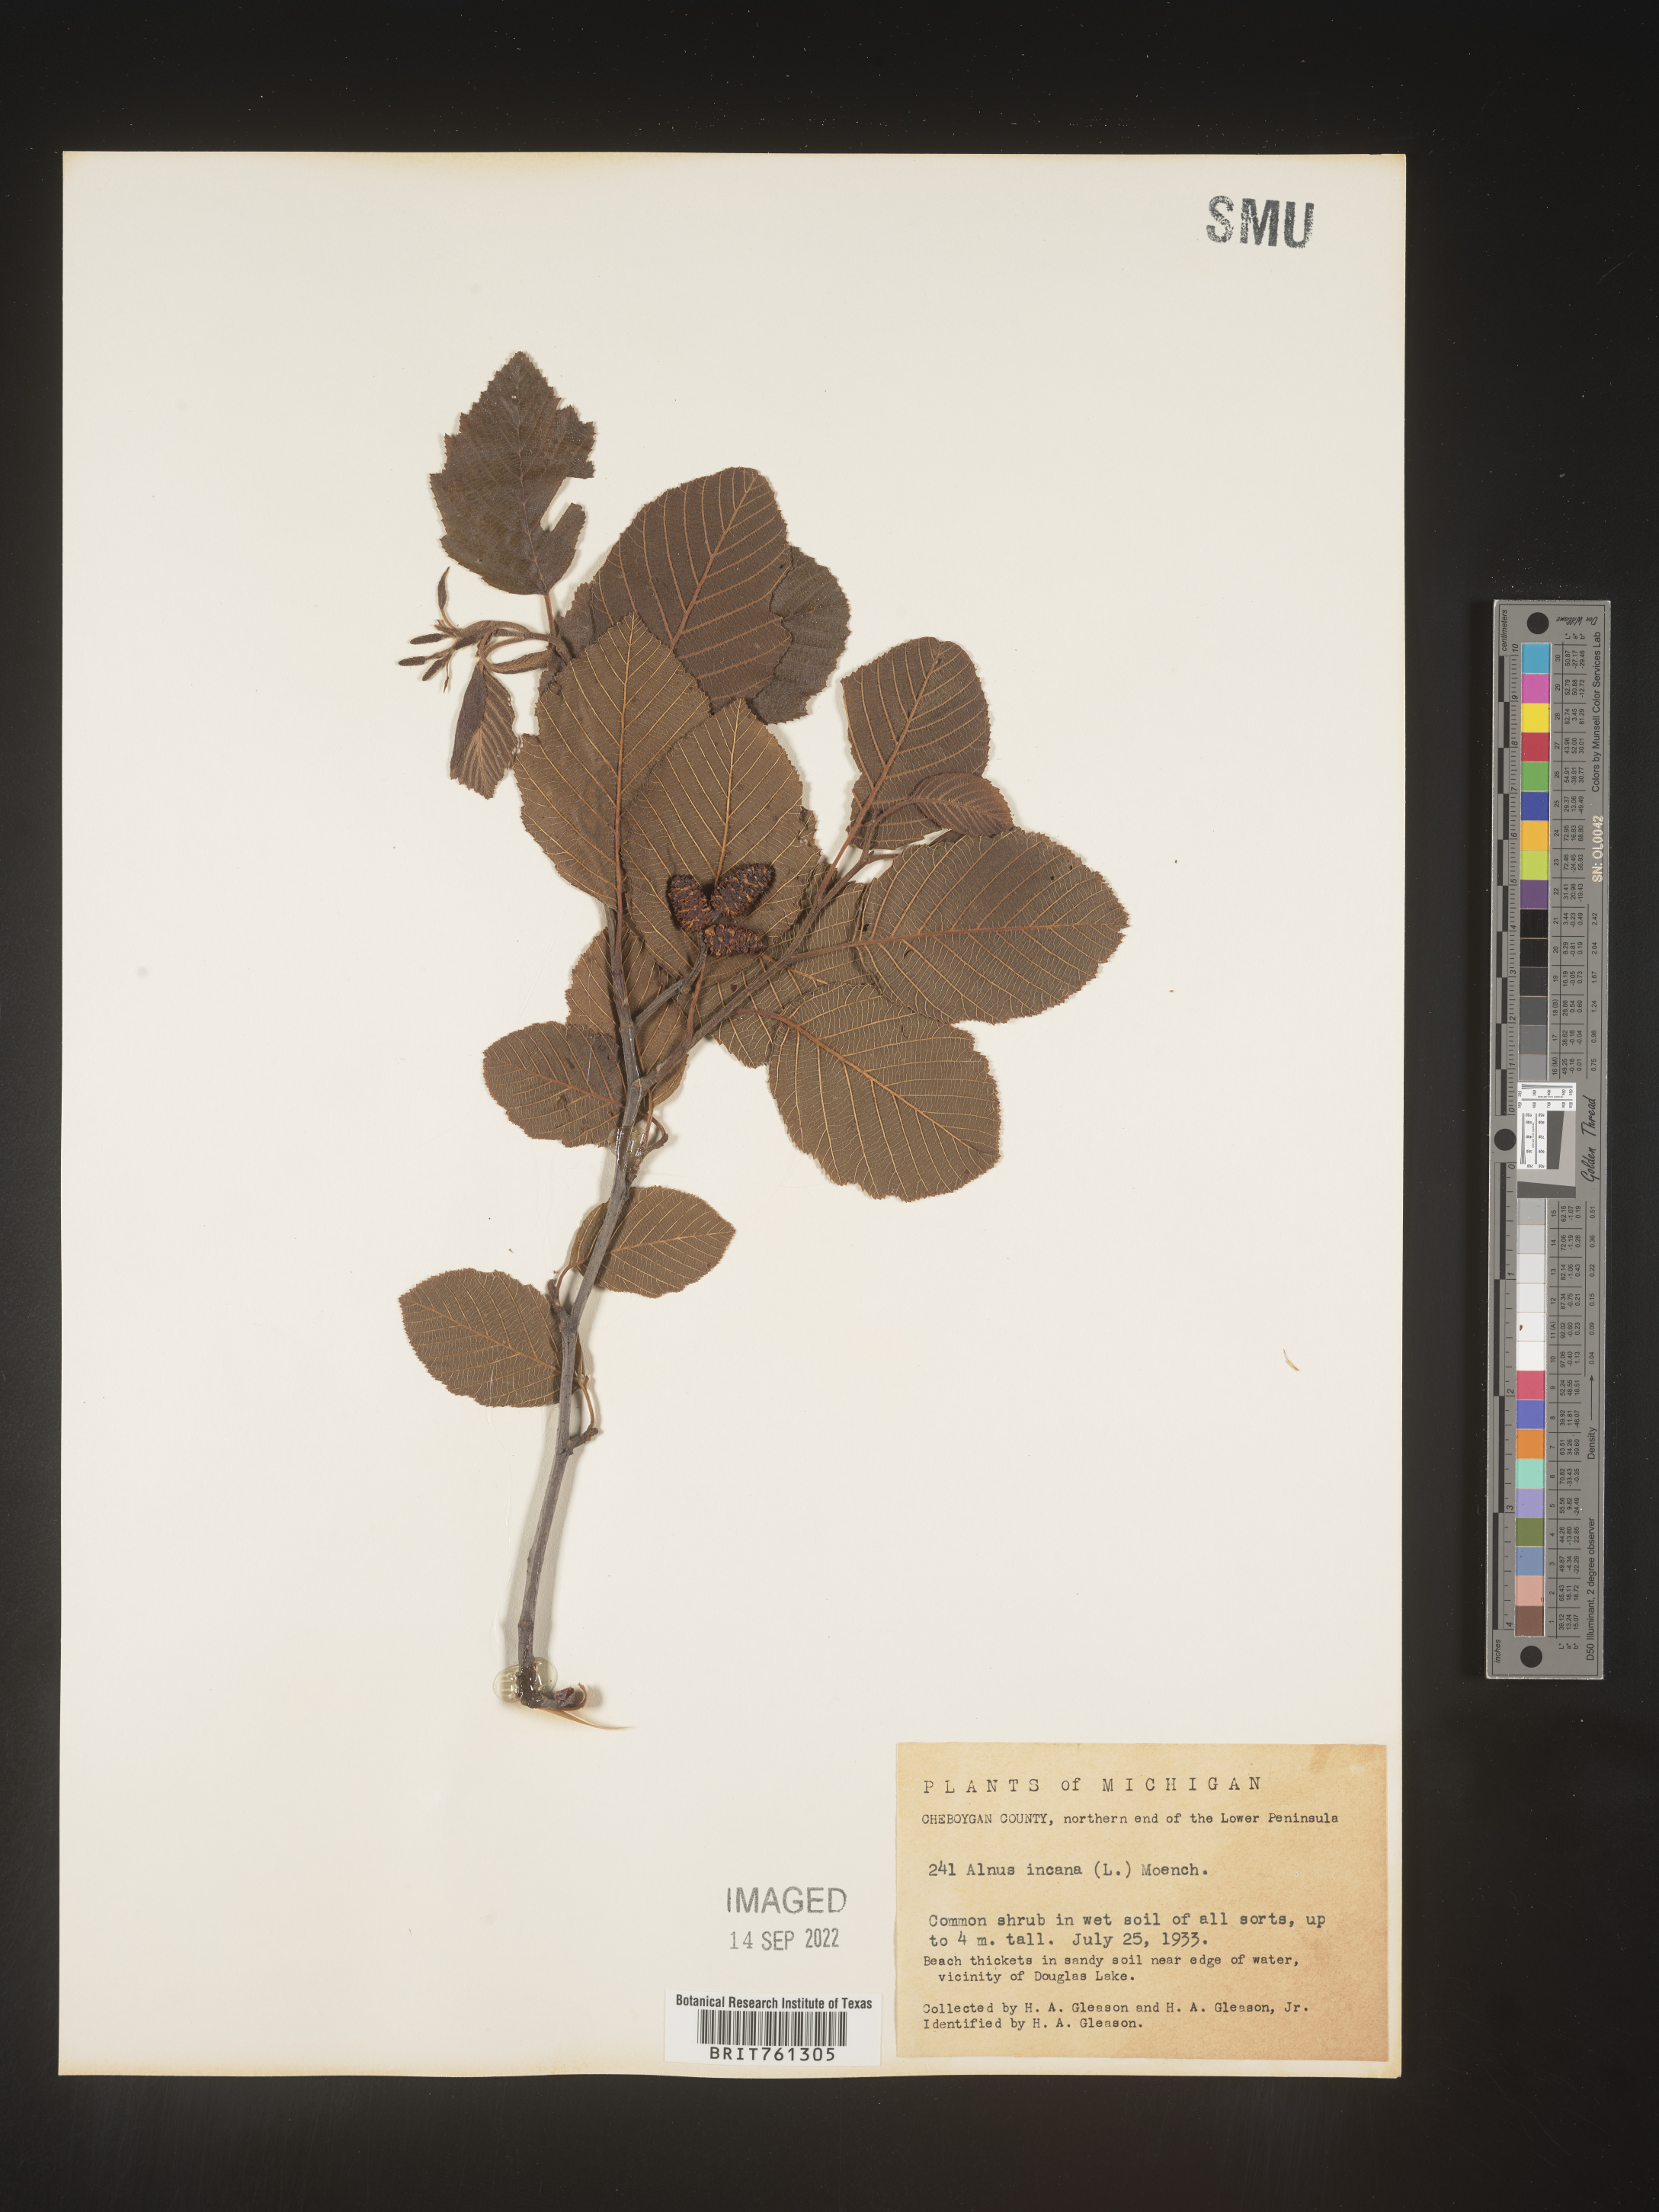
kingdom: Plantae
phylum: Tracheophyta
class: Magnoliopsida
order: Fagales
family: Betulaceae
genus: Alnus
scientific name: Alnus incana
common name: Grey alder
